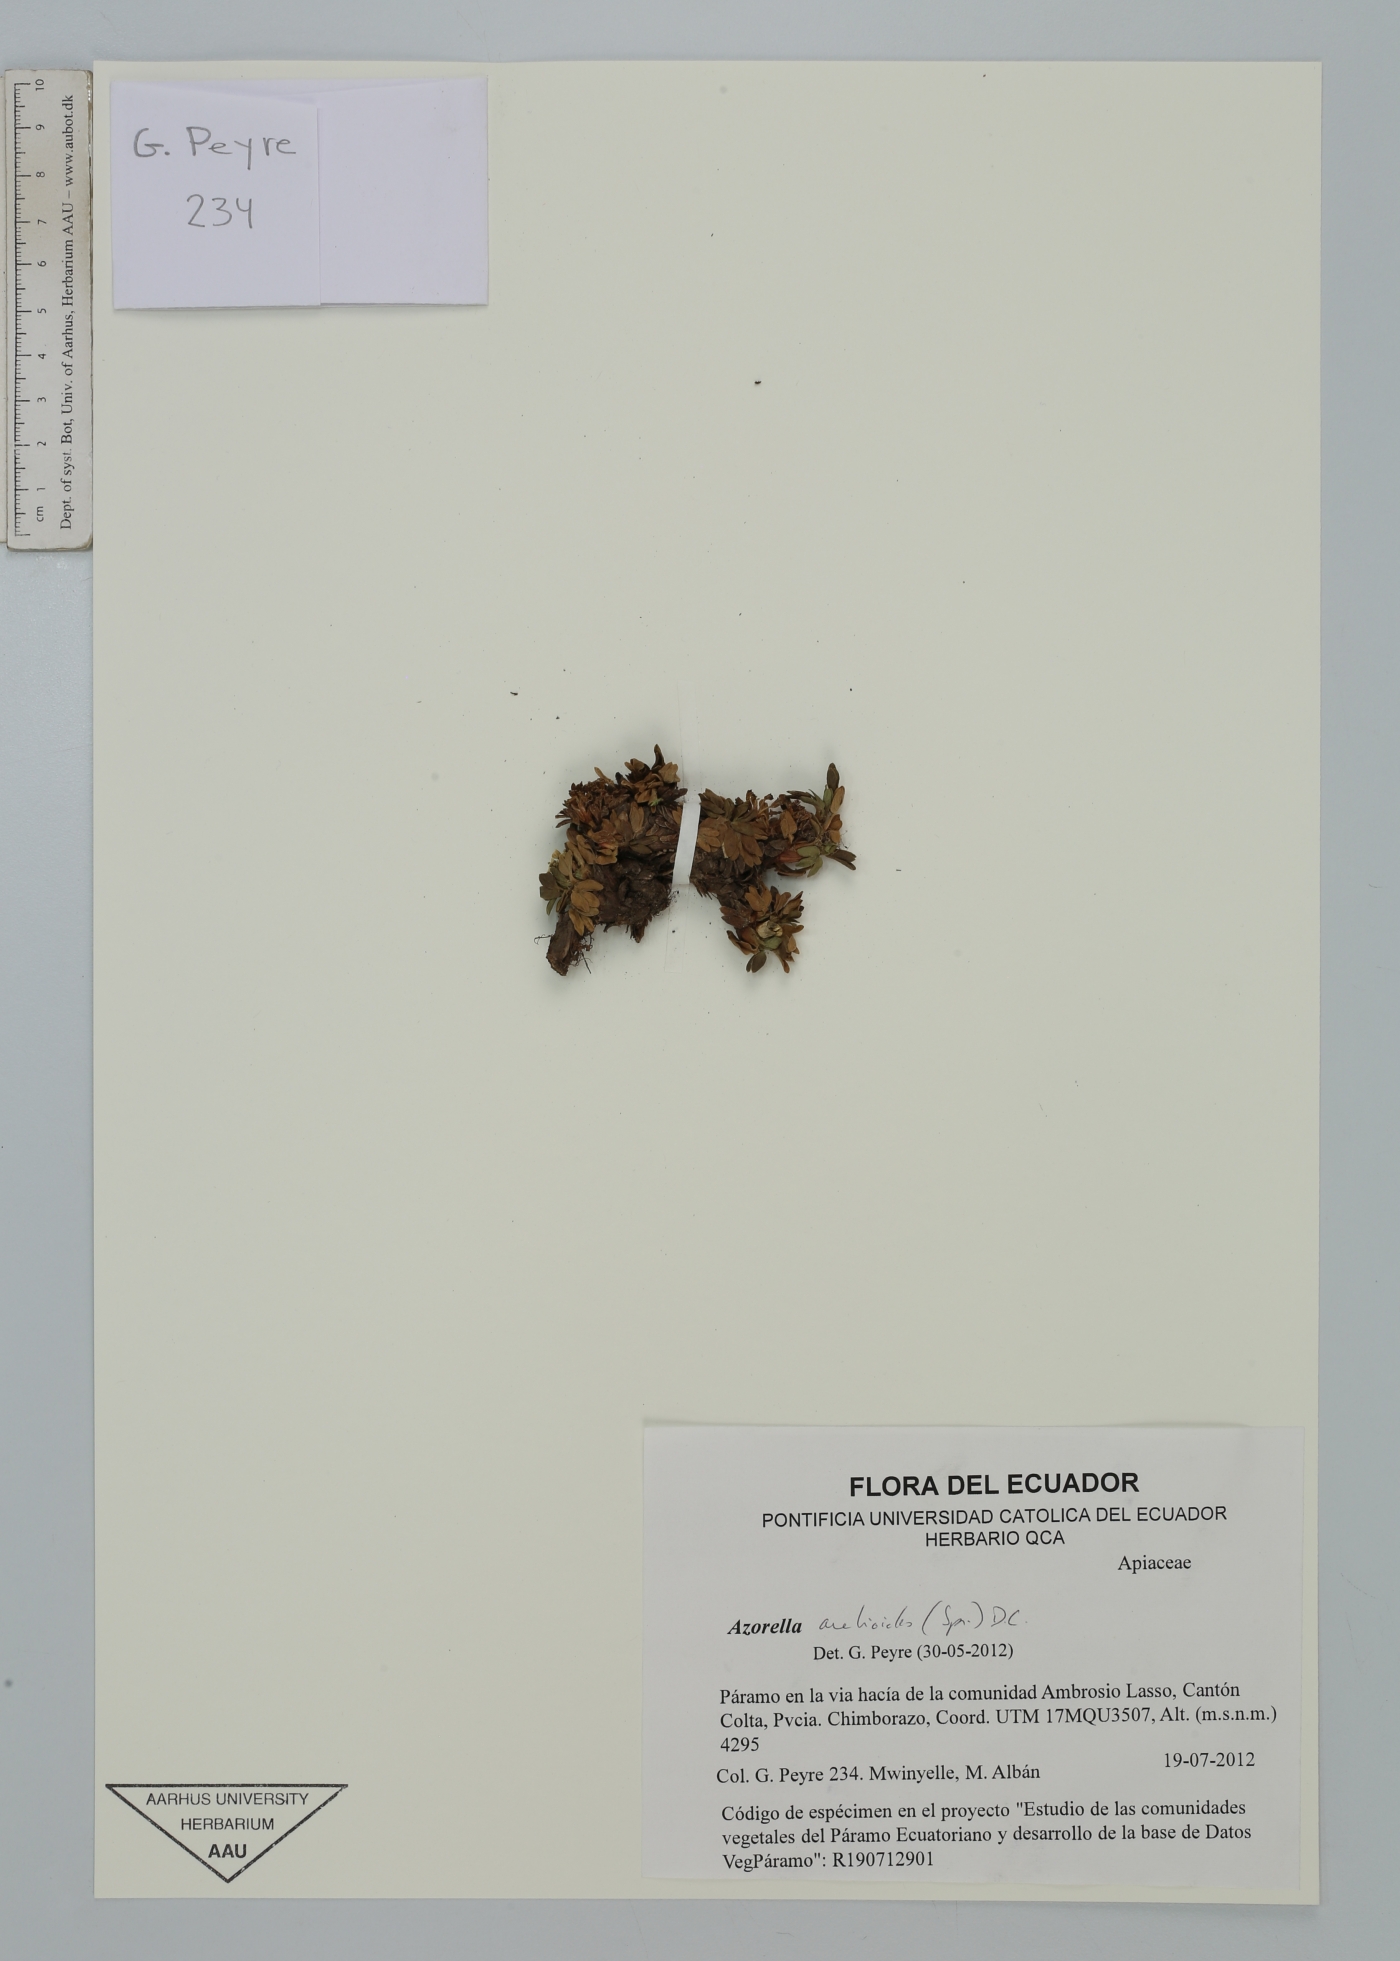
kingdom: Plantae
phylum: Tracheophyta
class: Magnoliopsida
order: Apiales
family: Apiaceae
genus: Azorella
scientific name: Azorella aretioides
